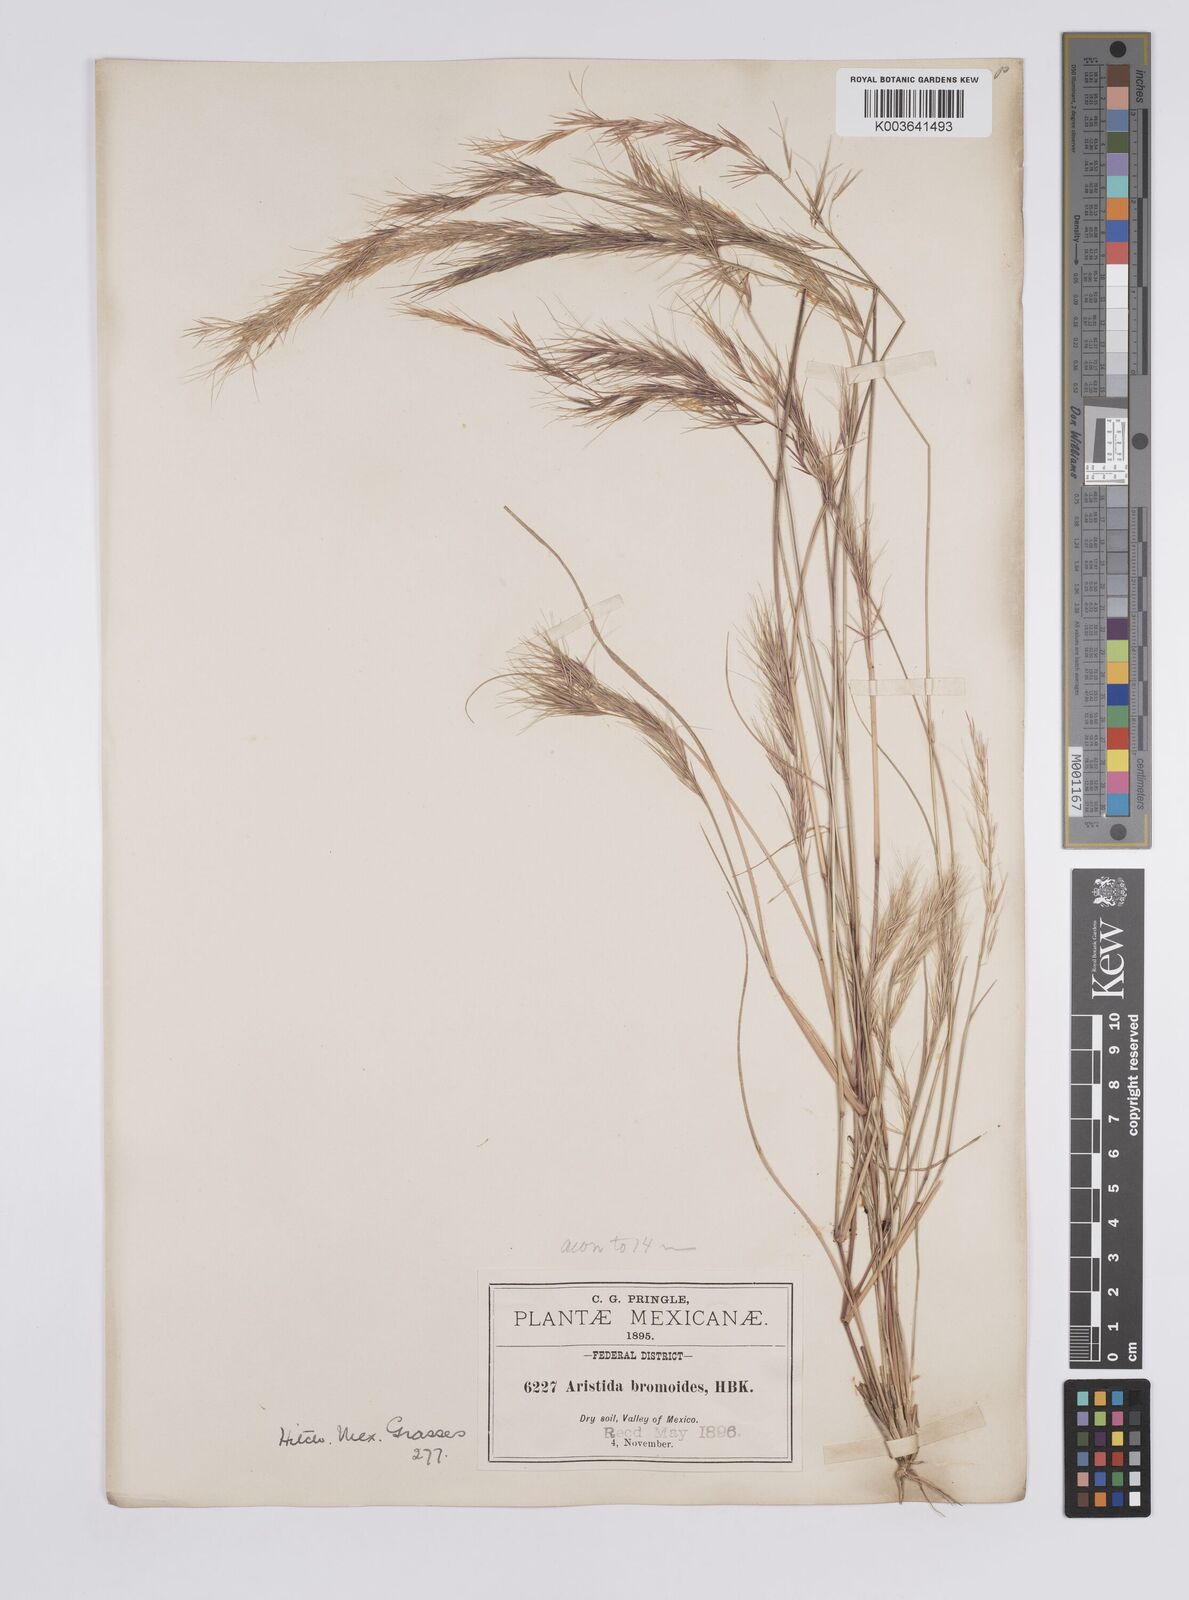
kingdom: Plantae
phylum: Tracheophyta
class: Liliopsida
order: Poales
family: Poaceae
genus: Aristida
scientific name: Aristida adscensionis
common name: Sixweeks threeawn
